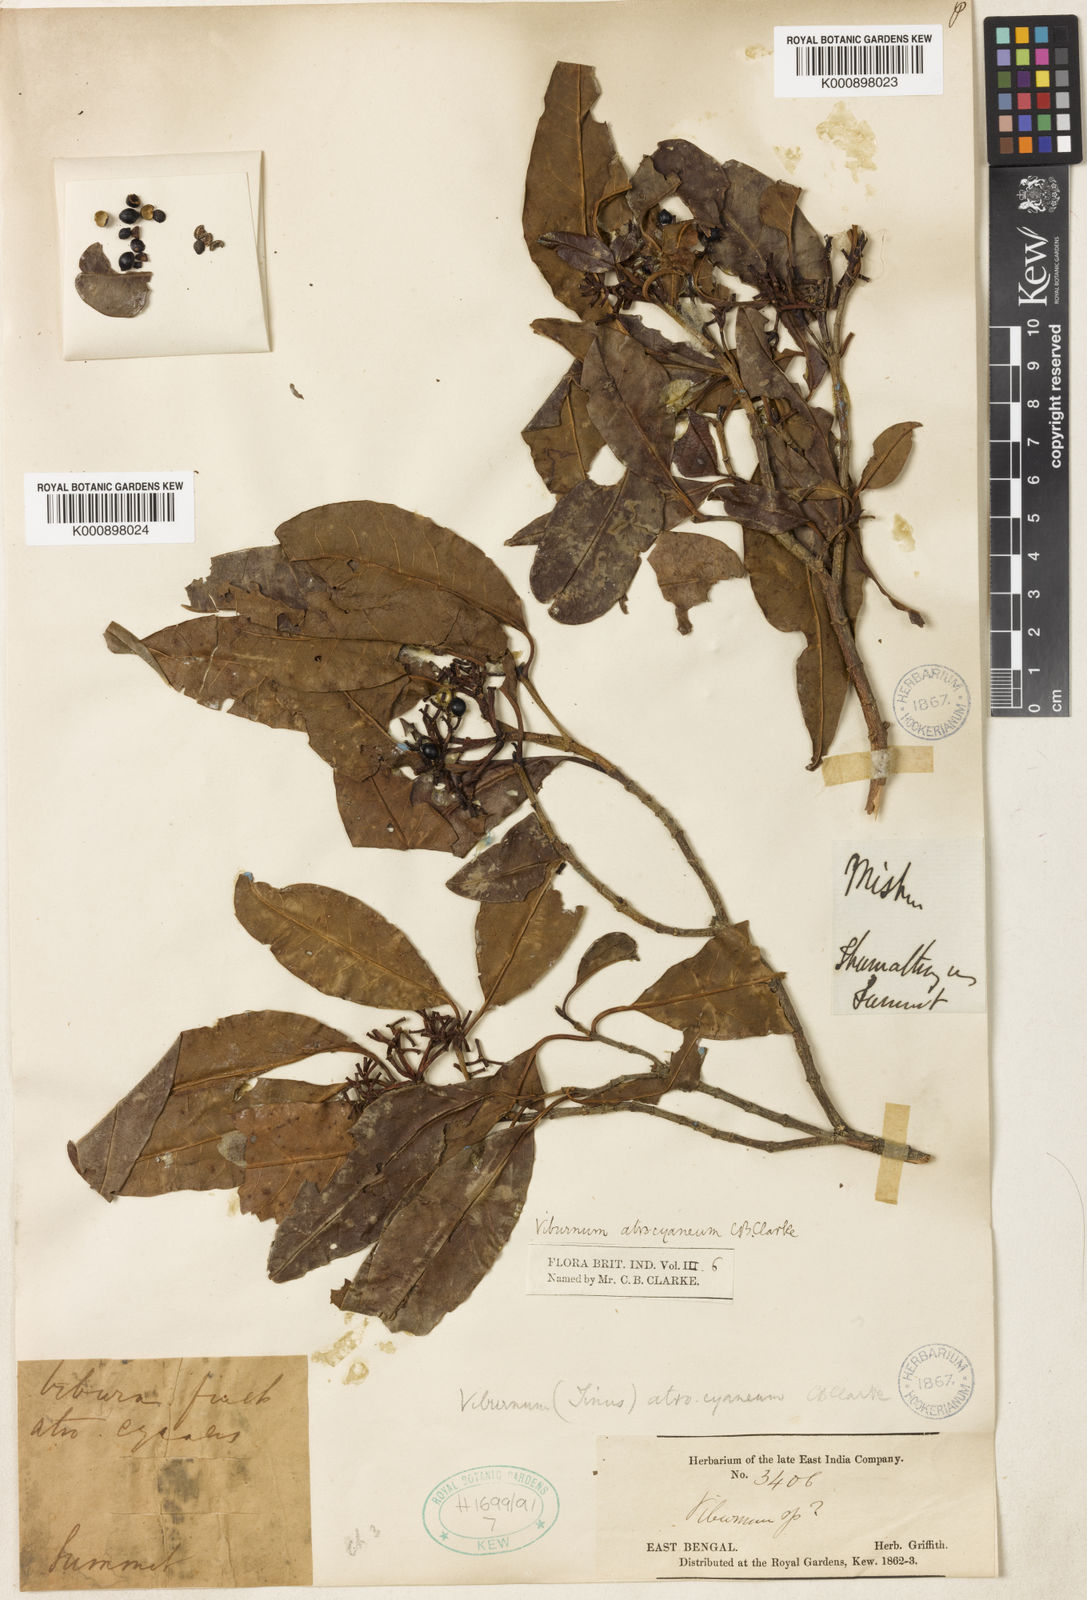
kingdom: Plantae
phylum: Tracheophyta
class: Magnoliopsida
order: Dipsacales
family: Viburnaceae
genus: Viburnum
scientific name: Viburnum atrocyaneum
